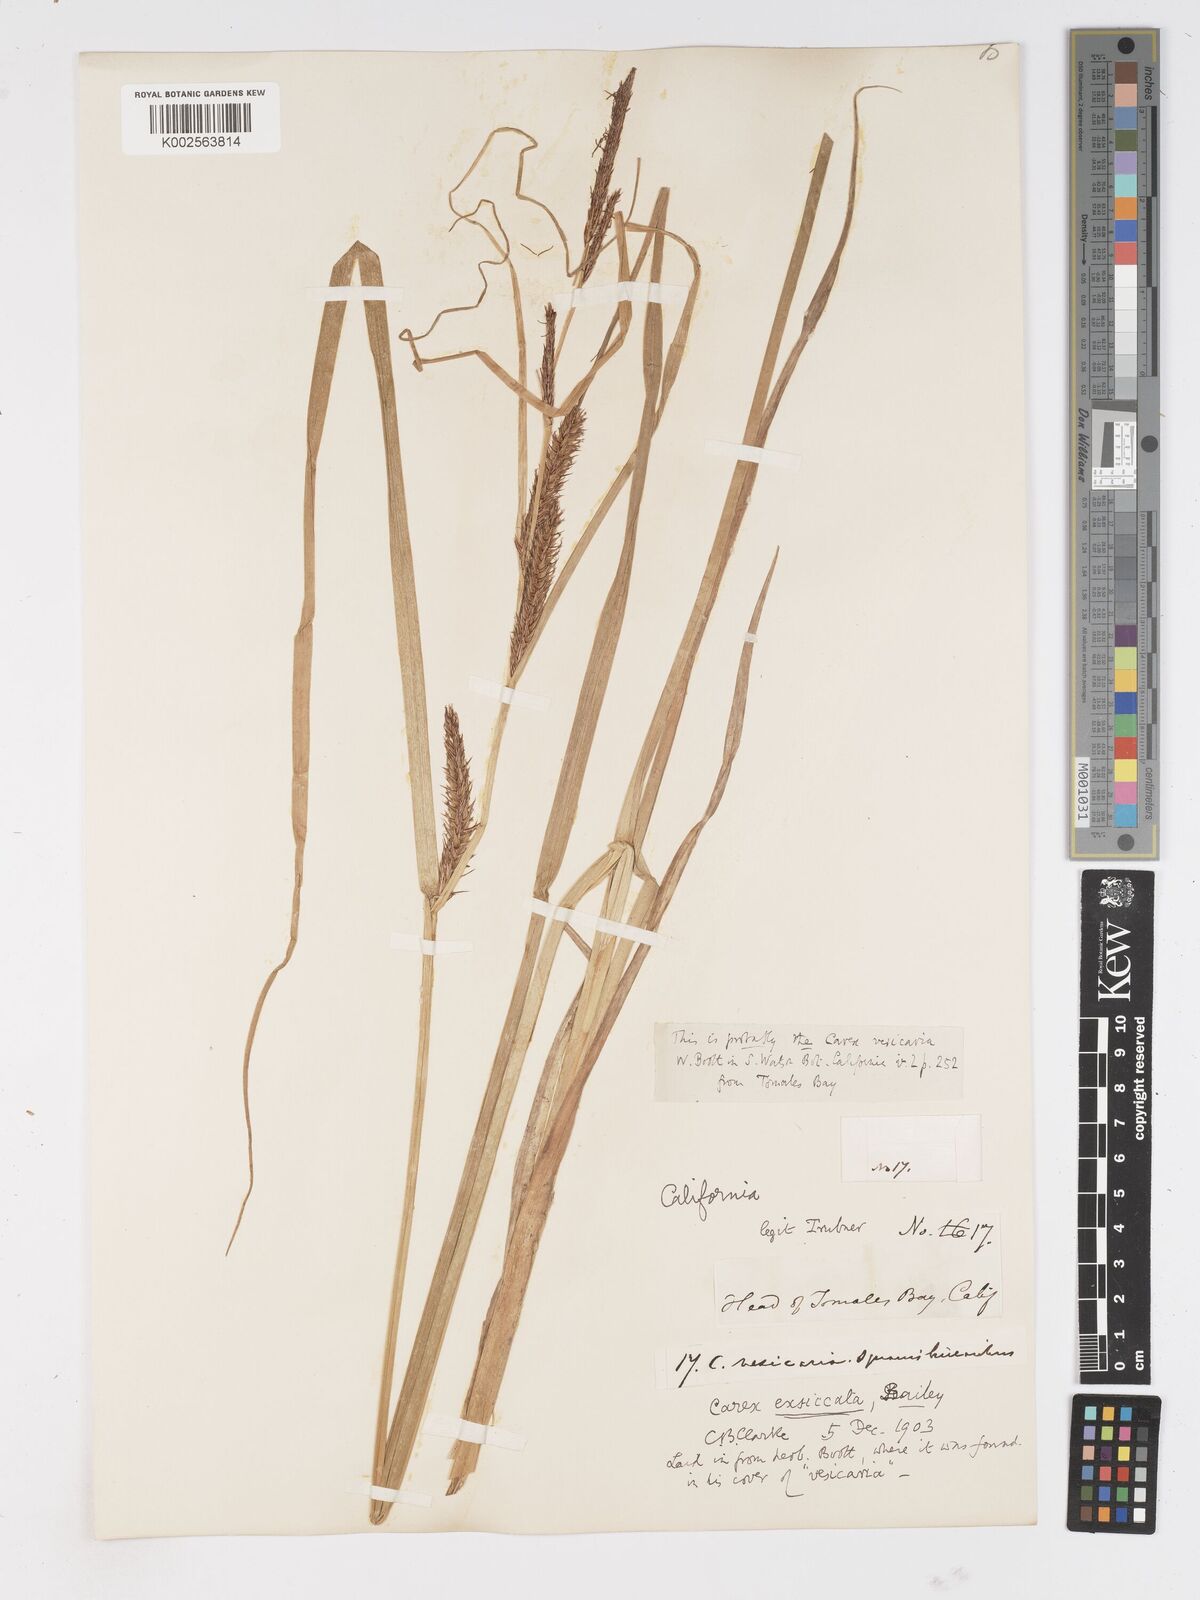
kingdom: Plantae
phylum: Tracheophyta
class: Liliopsida
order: Poales
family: Cyperaceae
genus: Carex
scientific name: Carex exsiccata
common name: Beaked sedge
